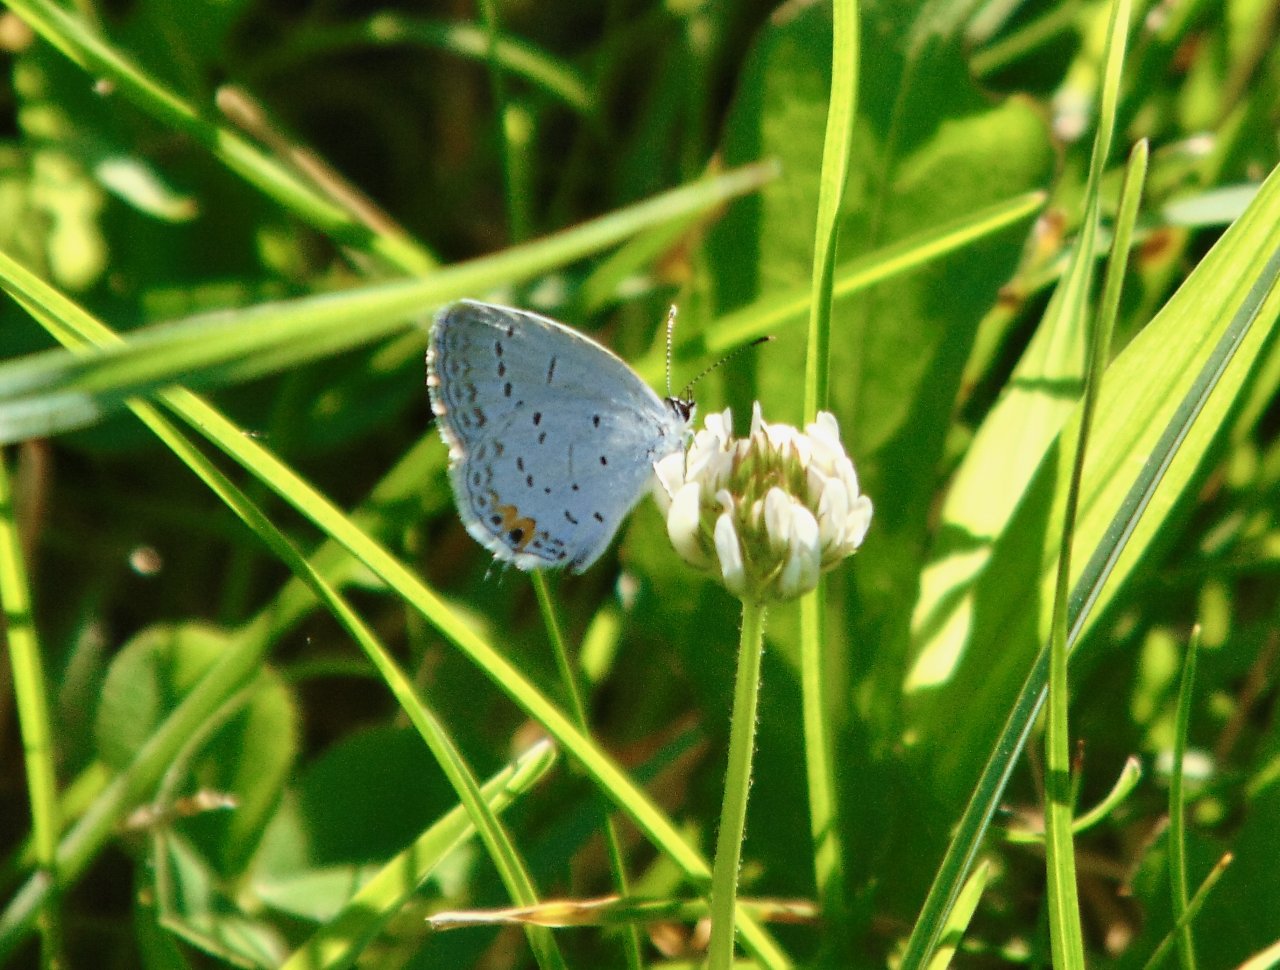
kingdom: Animalia
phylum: Arthropoda
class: Insecta
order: Lepidoptera
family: Lycaenidae
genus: Elkalyce
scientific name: Elkalyce comyntas
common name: Eastern Tailed-Blue
